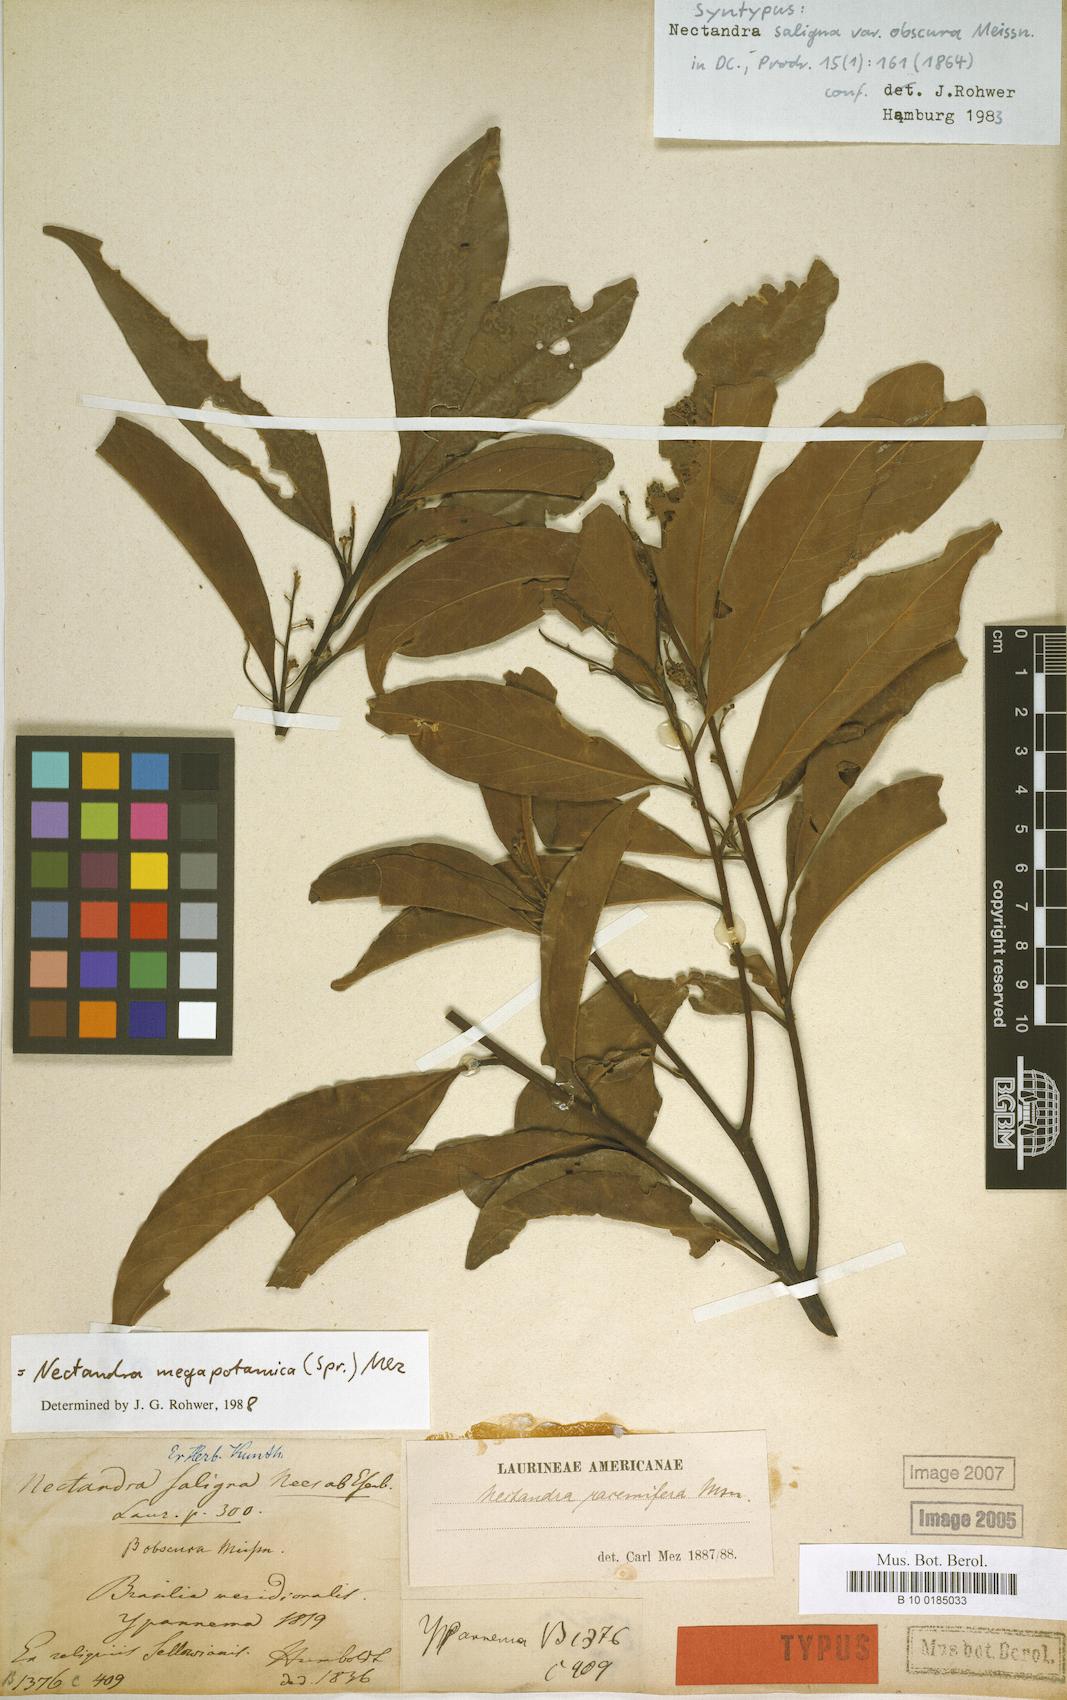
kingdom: Plantae
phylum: Tracheophyta
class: Magnoliopsida
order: Laurales
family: Lauraceae
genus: Nectandra
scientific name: Nectandra megapotamica
